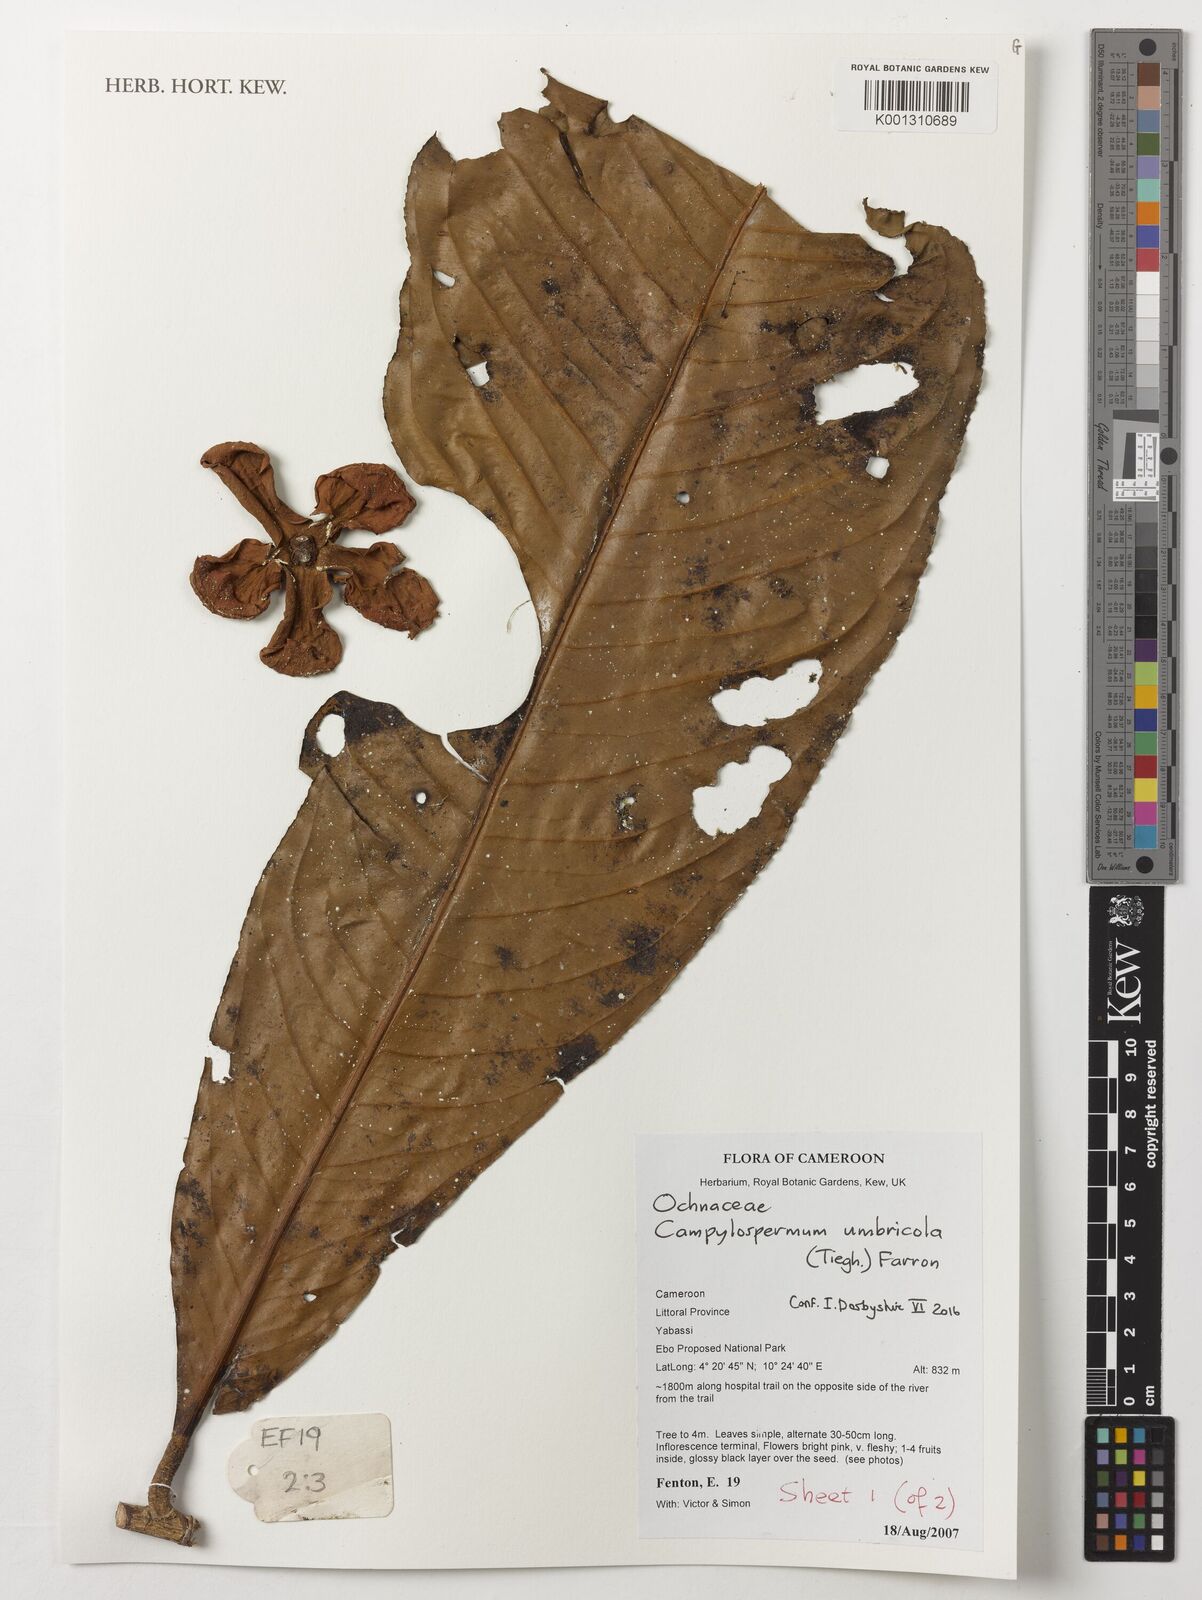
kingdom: Plantae
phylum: Tracheophyta
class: Magnoliopsida
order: Malpighiales
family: Ochnaceae
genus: Campylospermum
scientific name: Campylospermum umbricola
